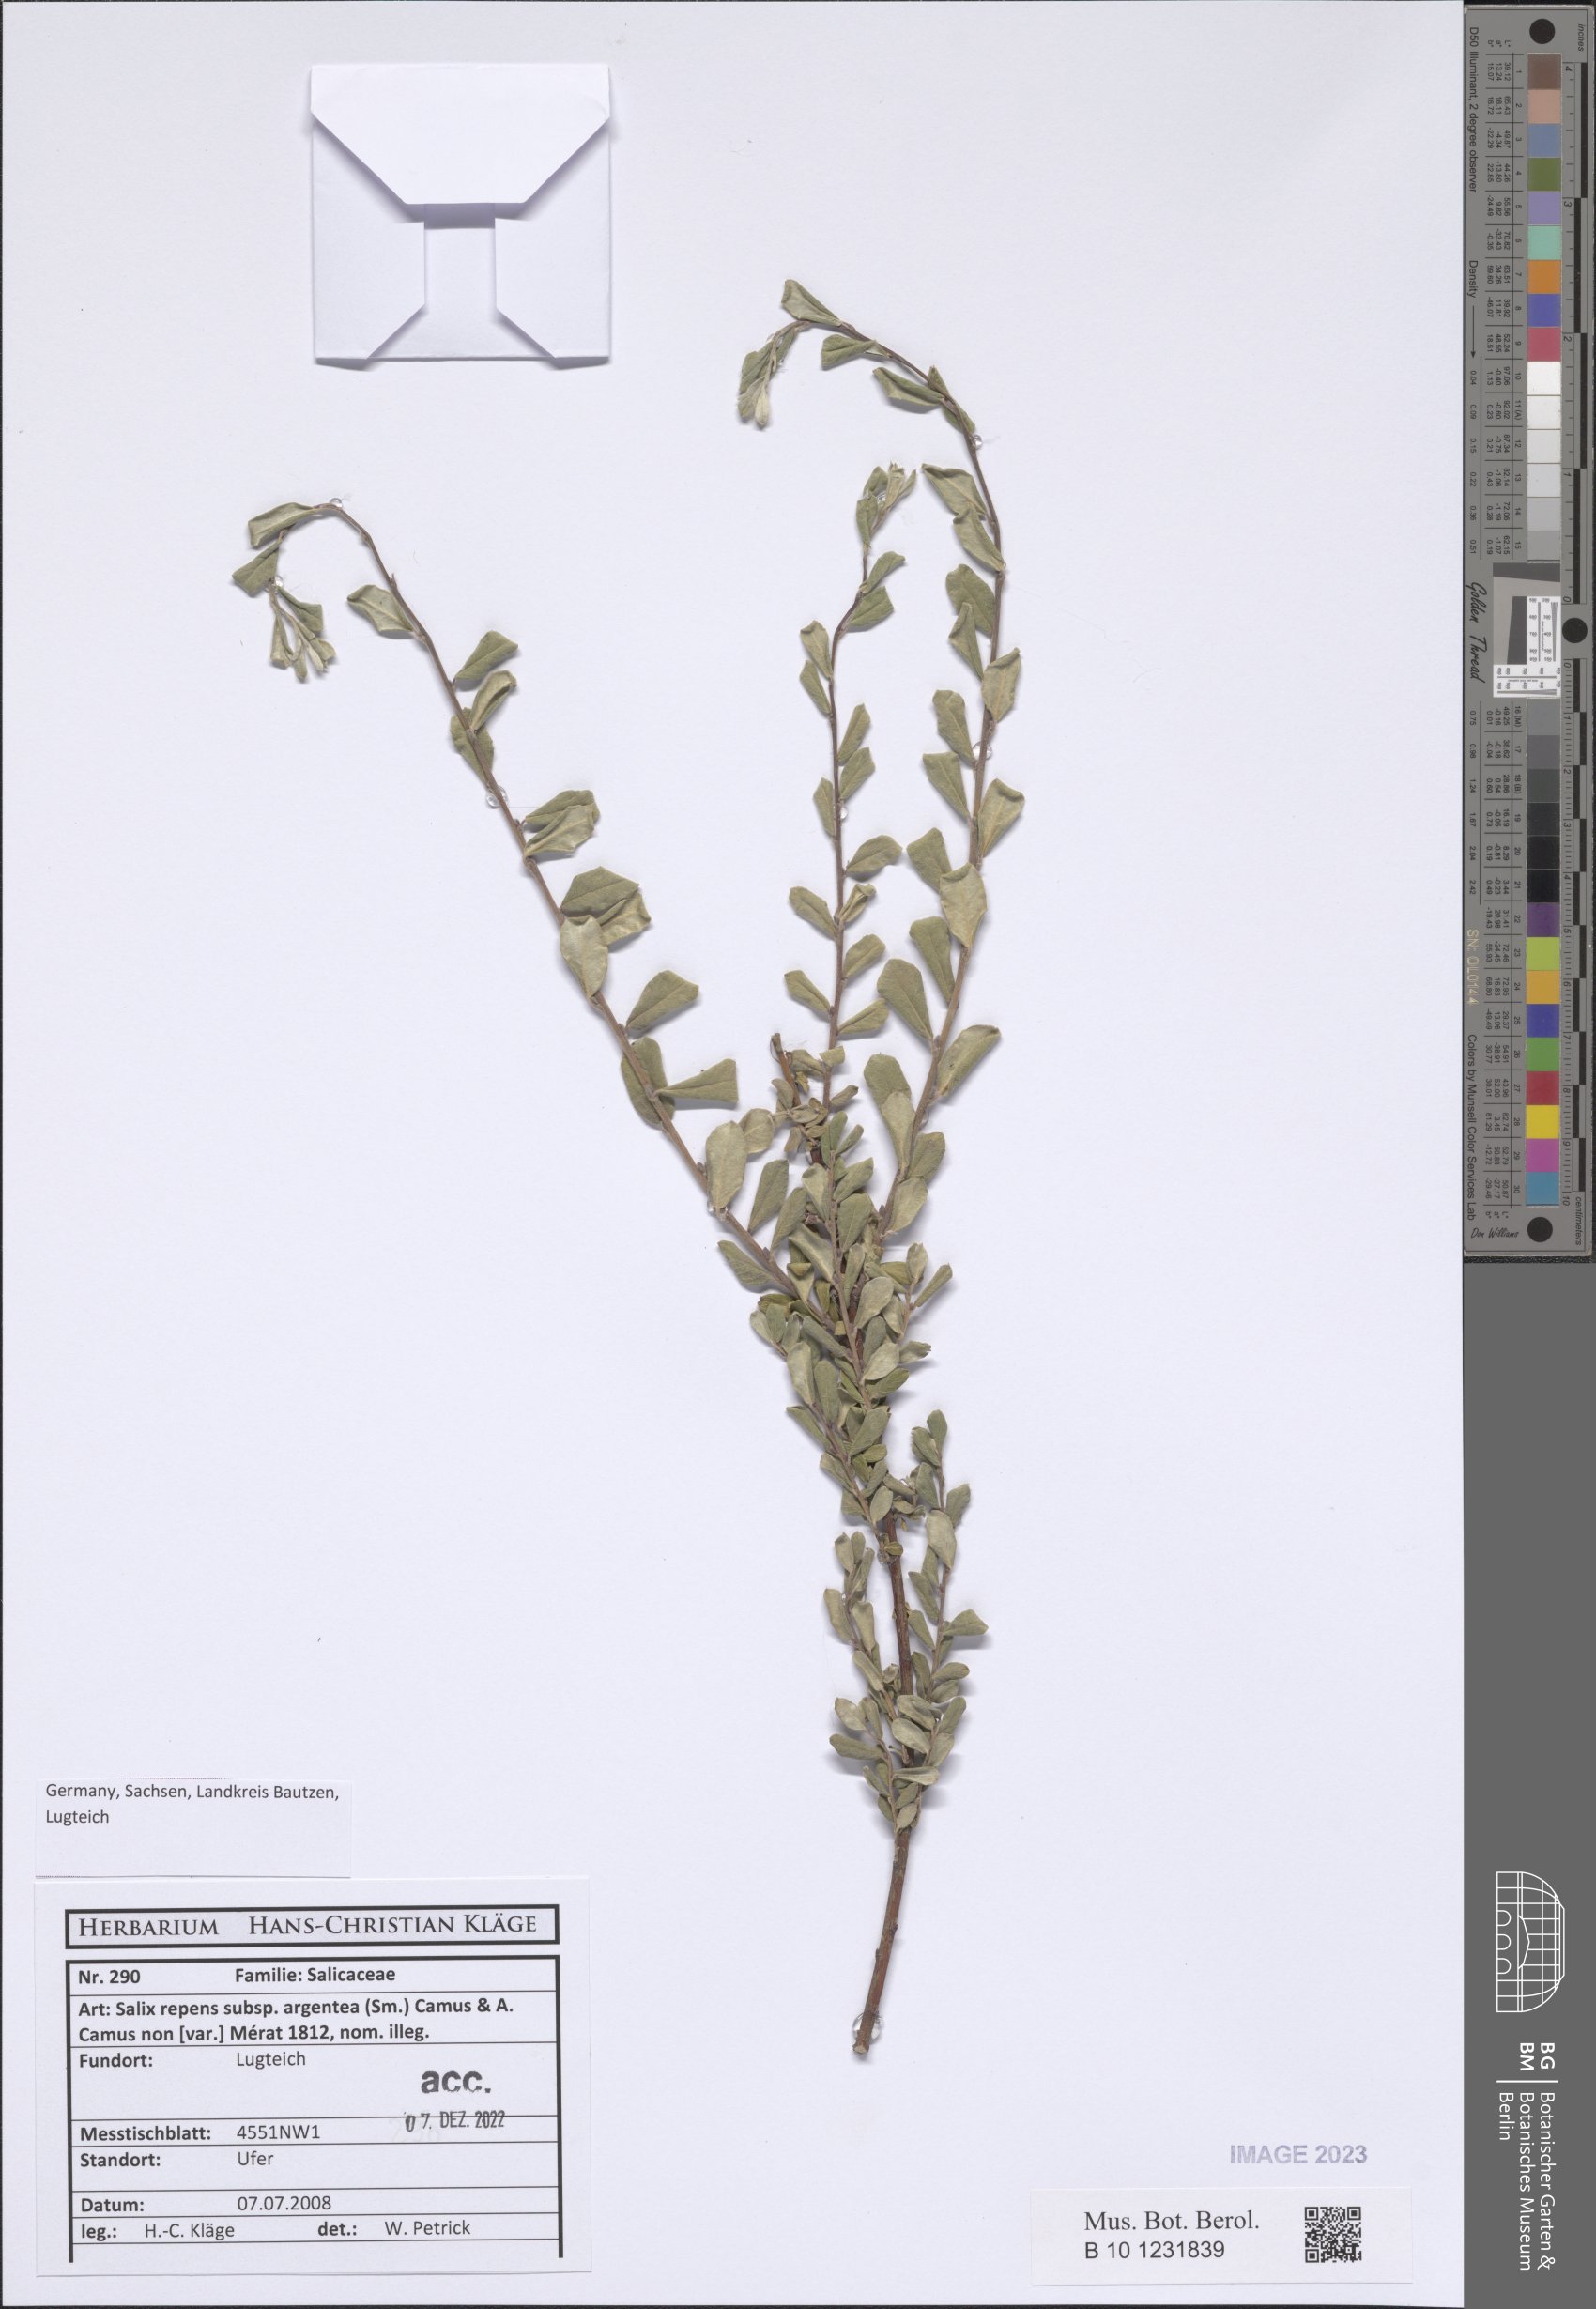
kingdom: Plantae
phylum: Tracheophyta
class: Magnoliopsida
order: Malpighiales
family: Salicaceae
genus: Salix
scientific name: Salix repens
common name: Creeping willow
